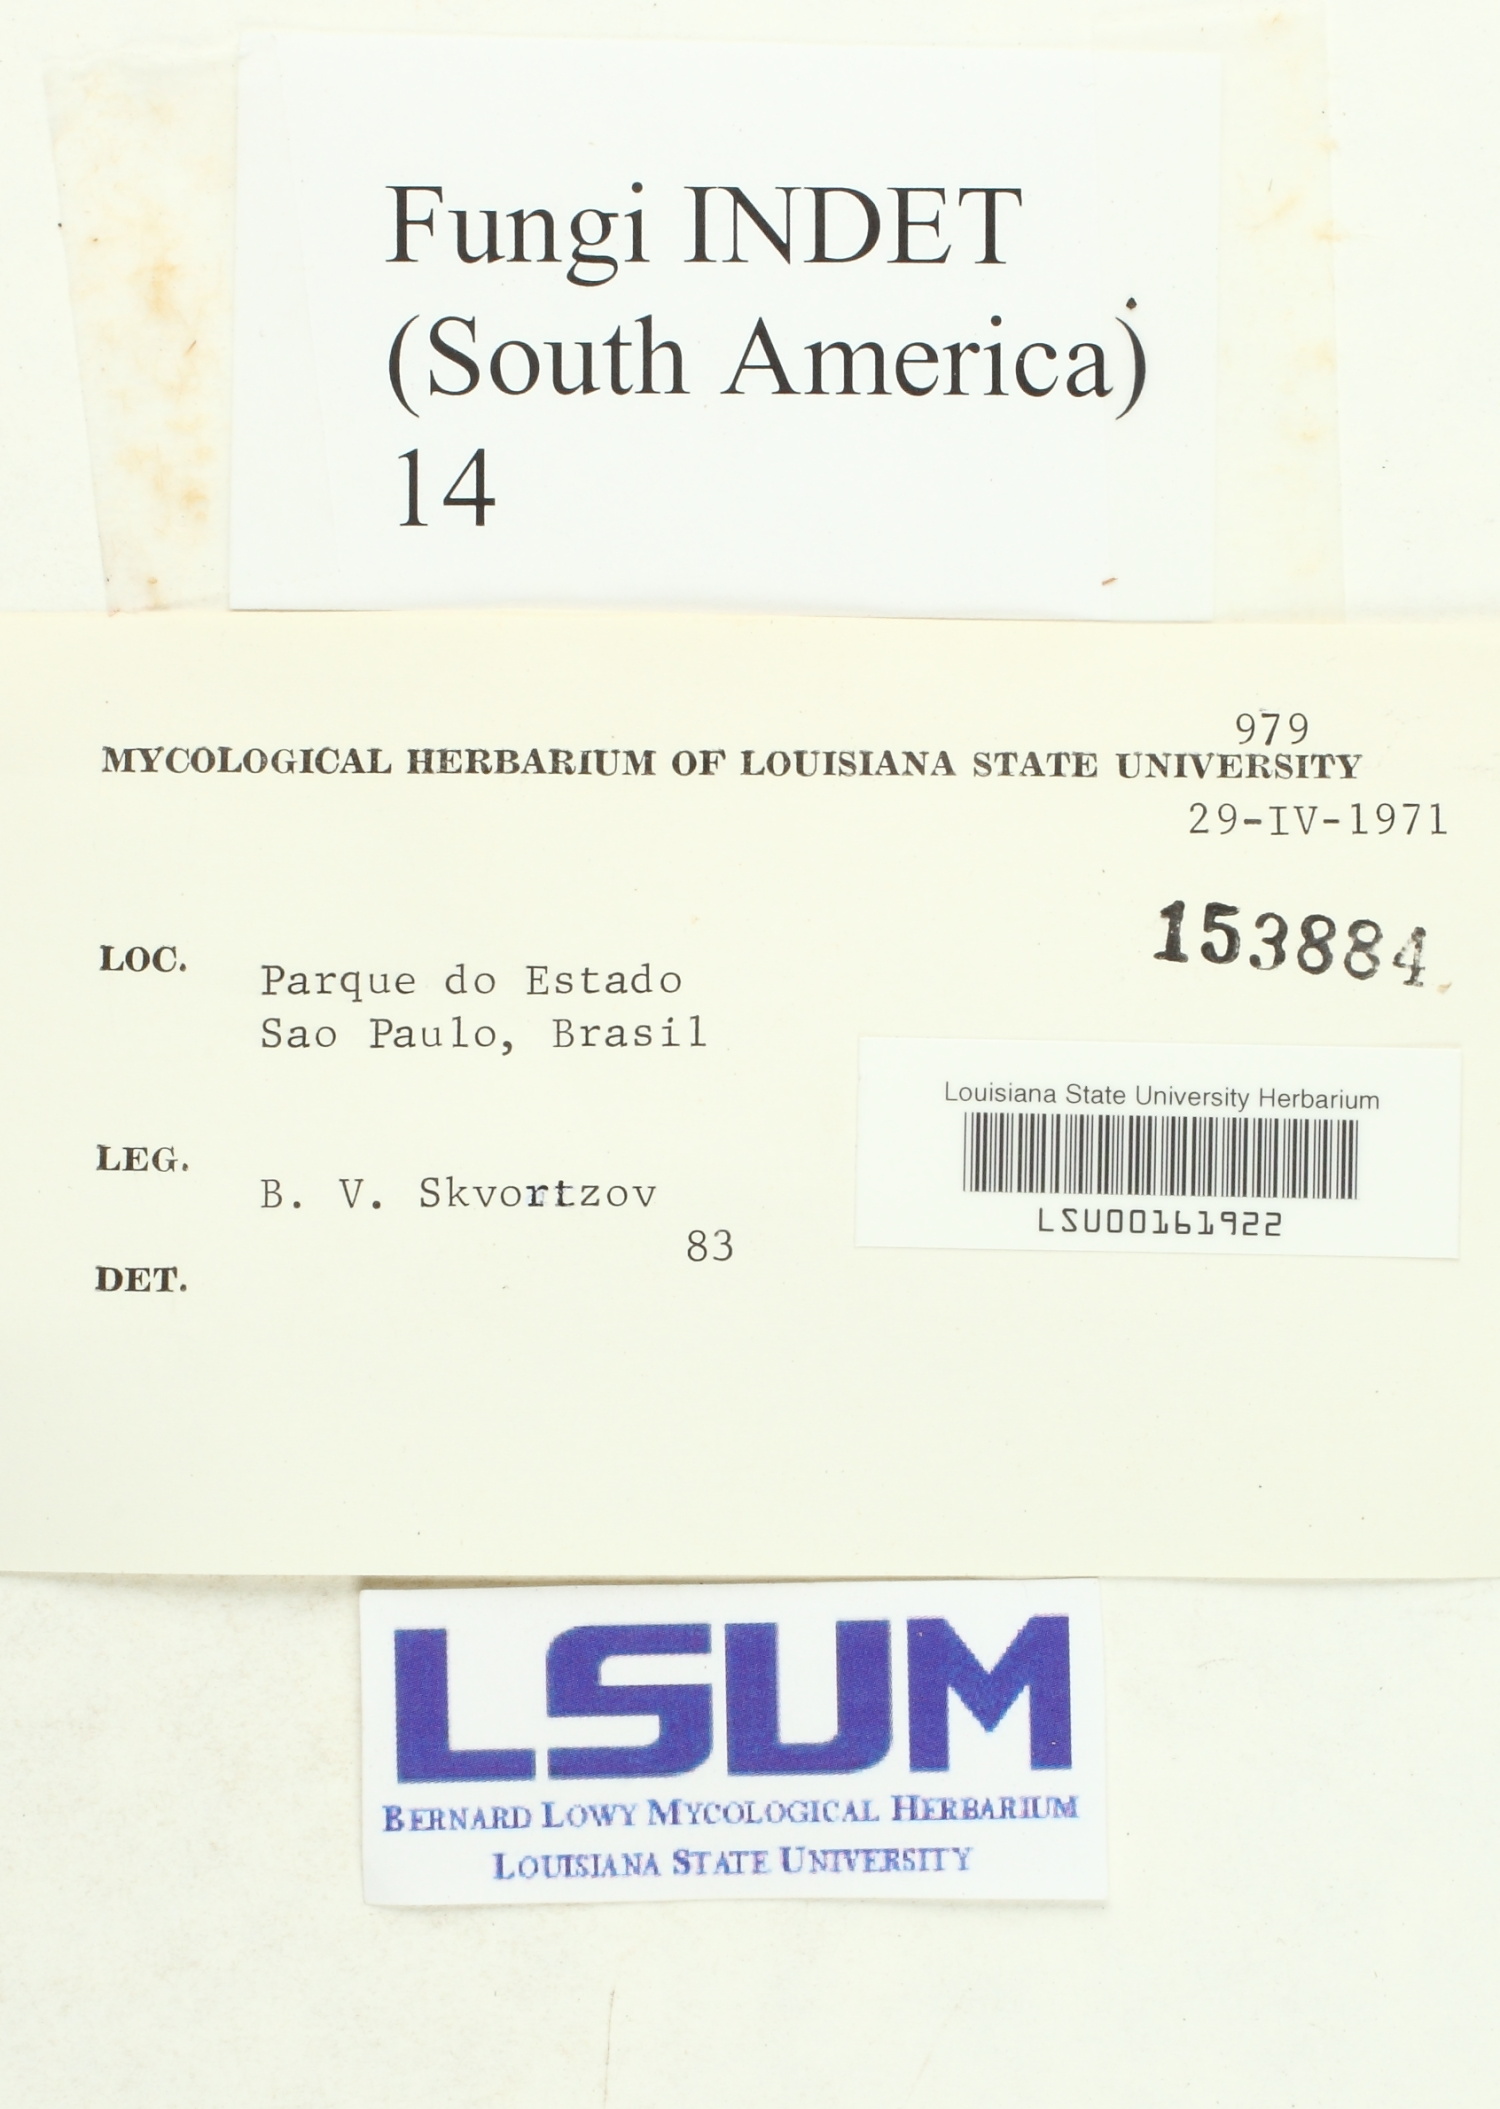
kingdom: Fungi
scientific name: Fungi
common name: Fungi
